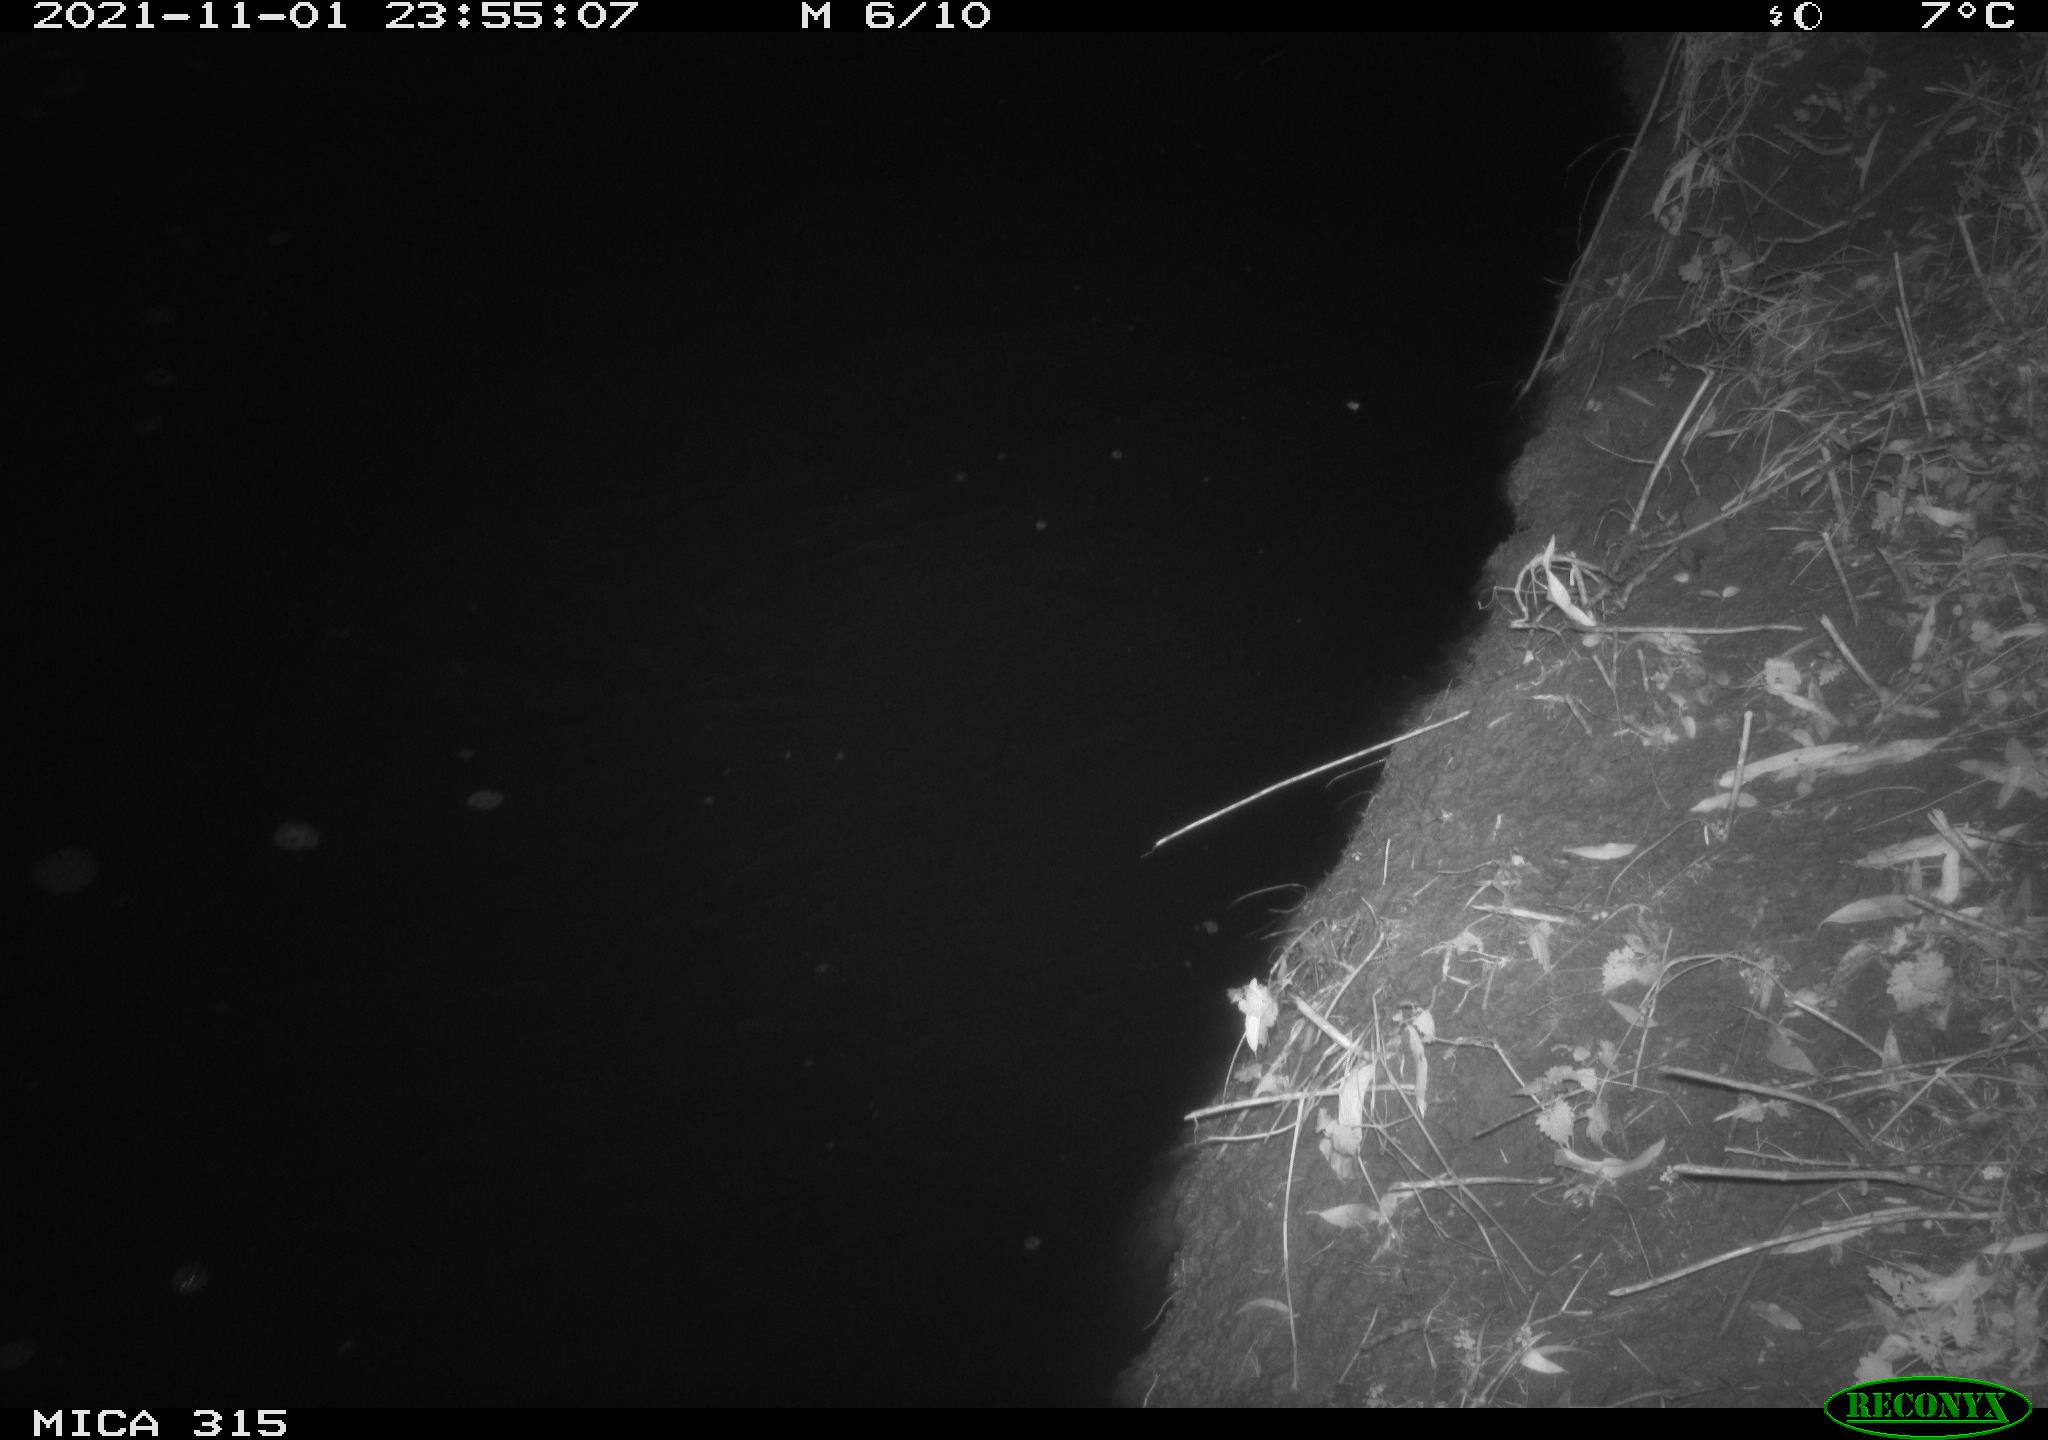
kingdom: Animalia
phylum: Chordata
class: Mammalia
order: Rodentia
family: Cricetidae
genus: Myodes
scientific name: Myodes glareolus
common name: Bank vole
